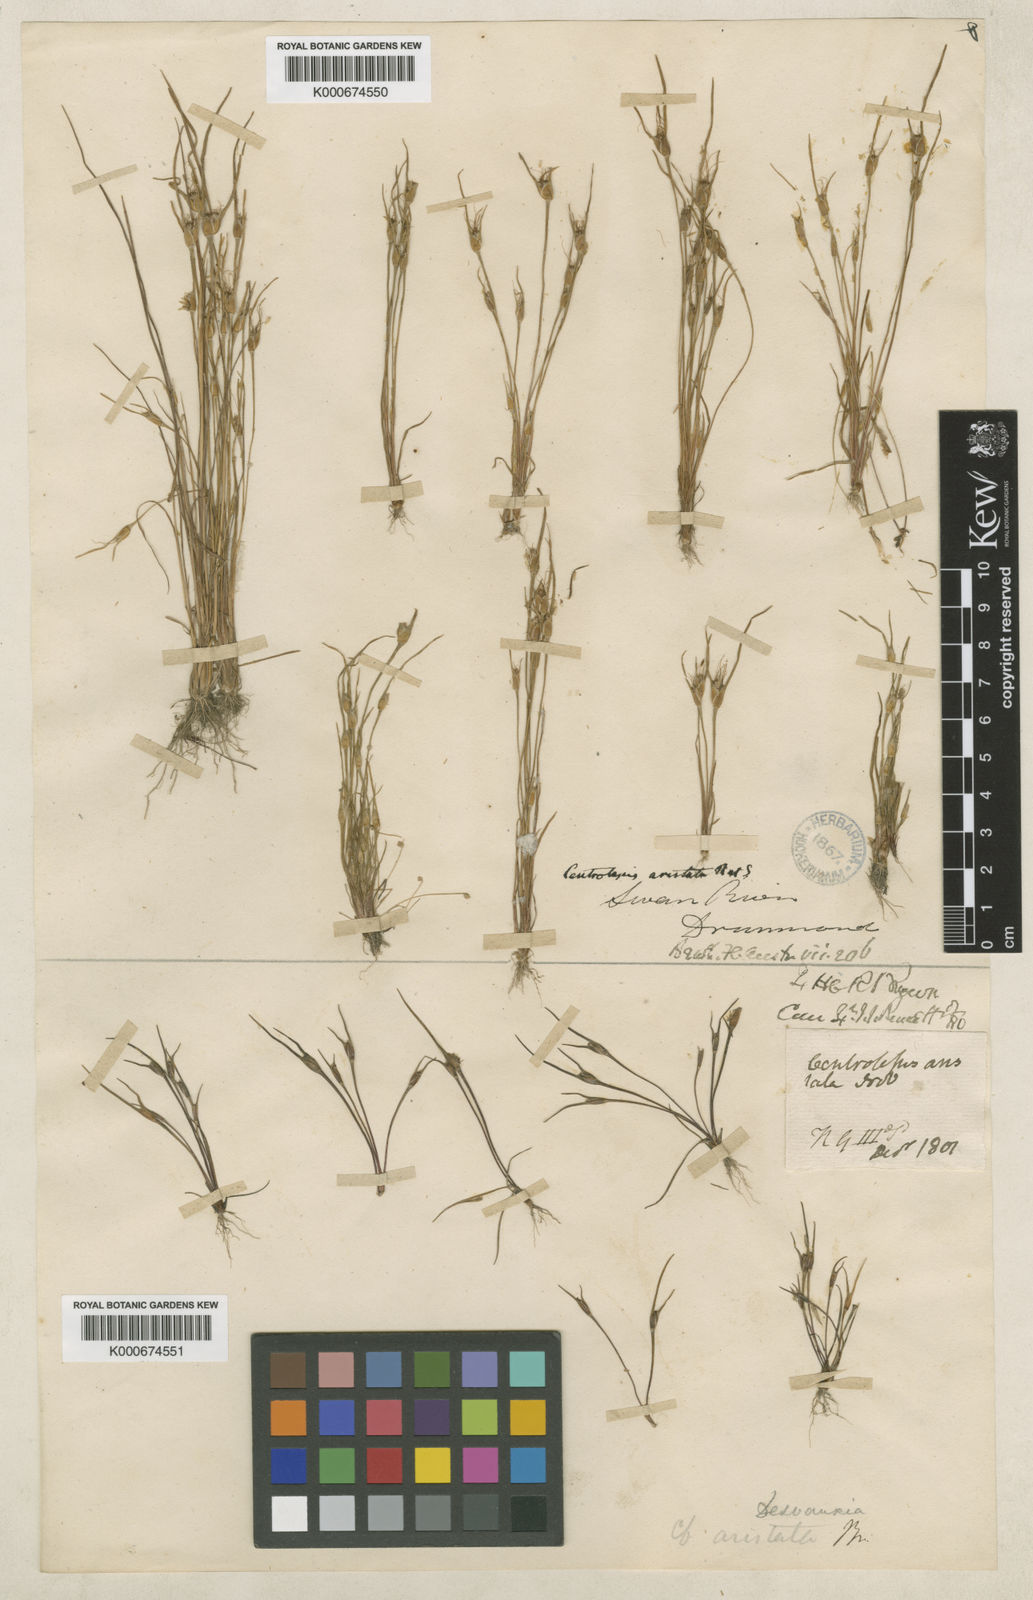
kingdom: Plantae
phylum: Tracheophyta
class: Liliopsida
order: Poales
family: Restionaceae
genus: Centrolepis
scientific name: Centrolepis aristata
